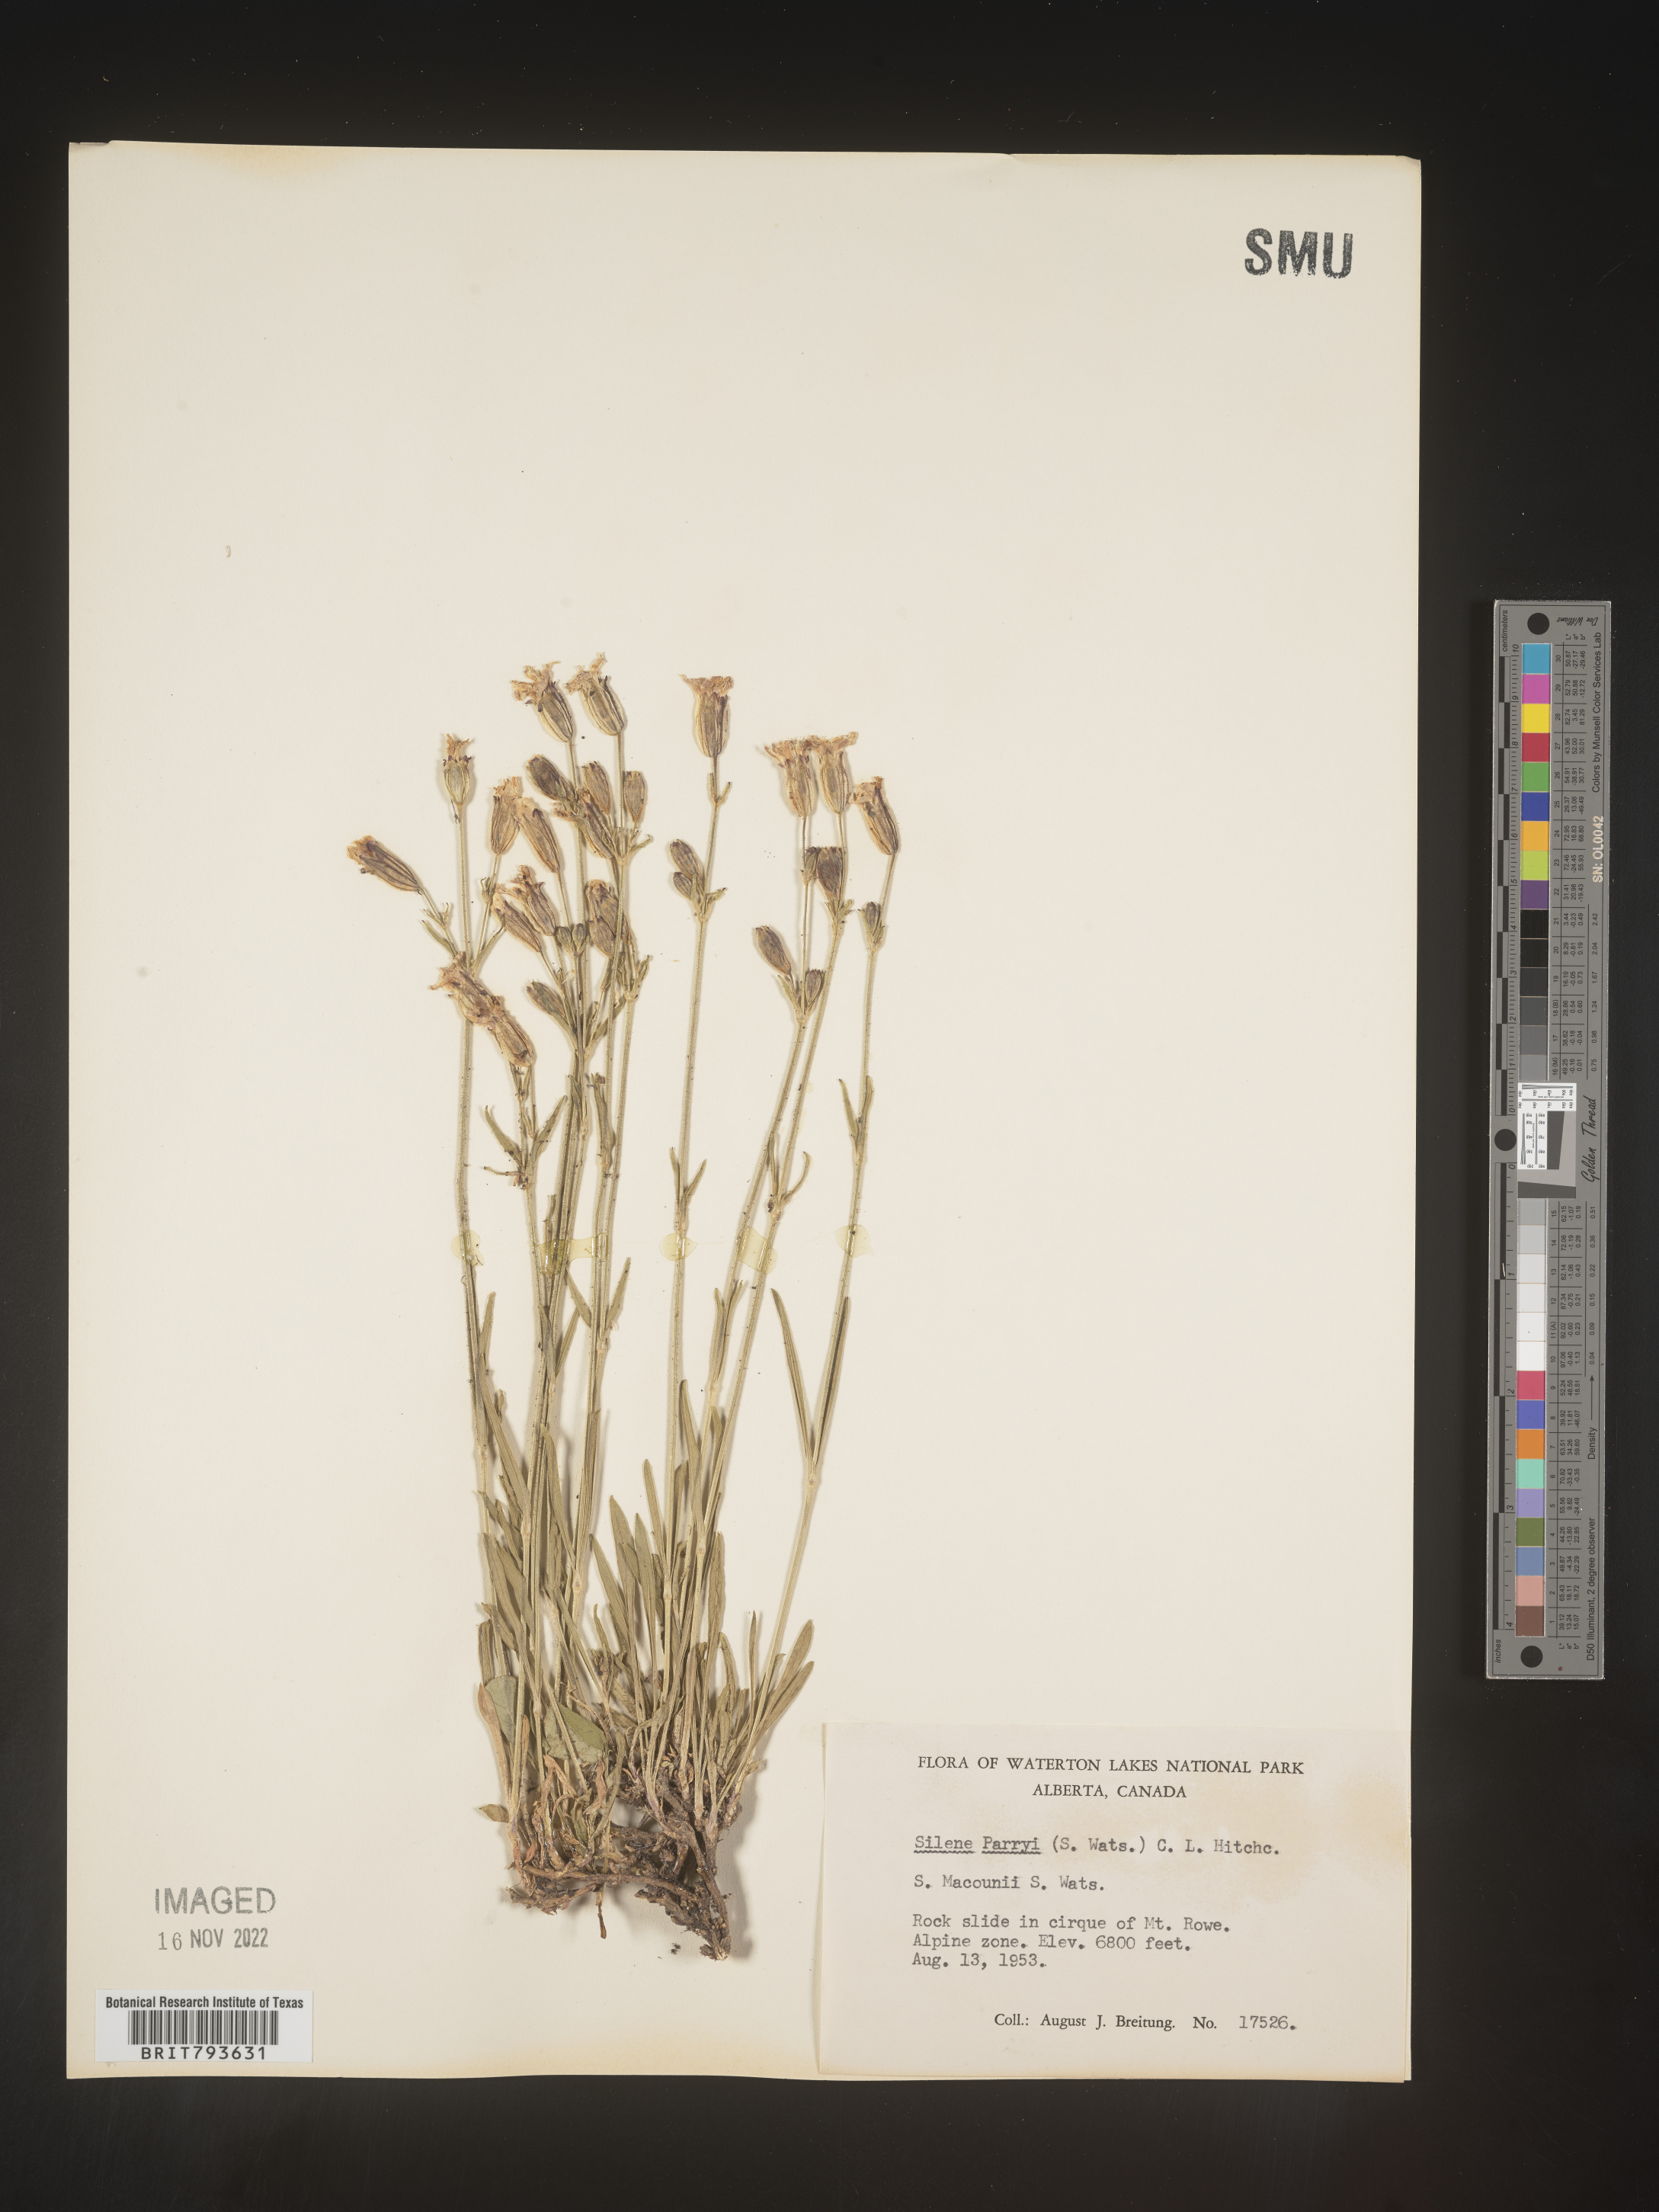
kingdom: Plantae
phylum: Tracheophyta
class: Magnoliopsida
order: Caryophyllales
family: Caryophyllaceae
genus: Silene
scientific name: Silene parryi
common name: Parry's campion
